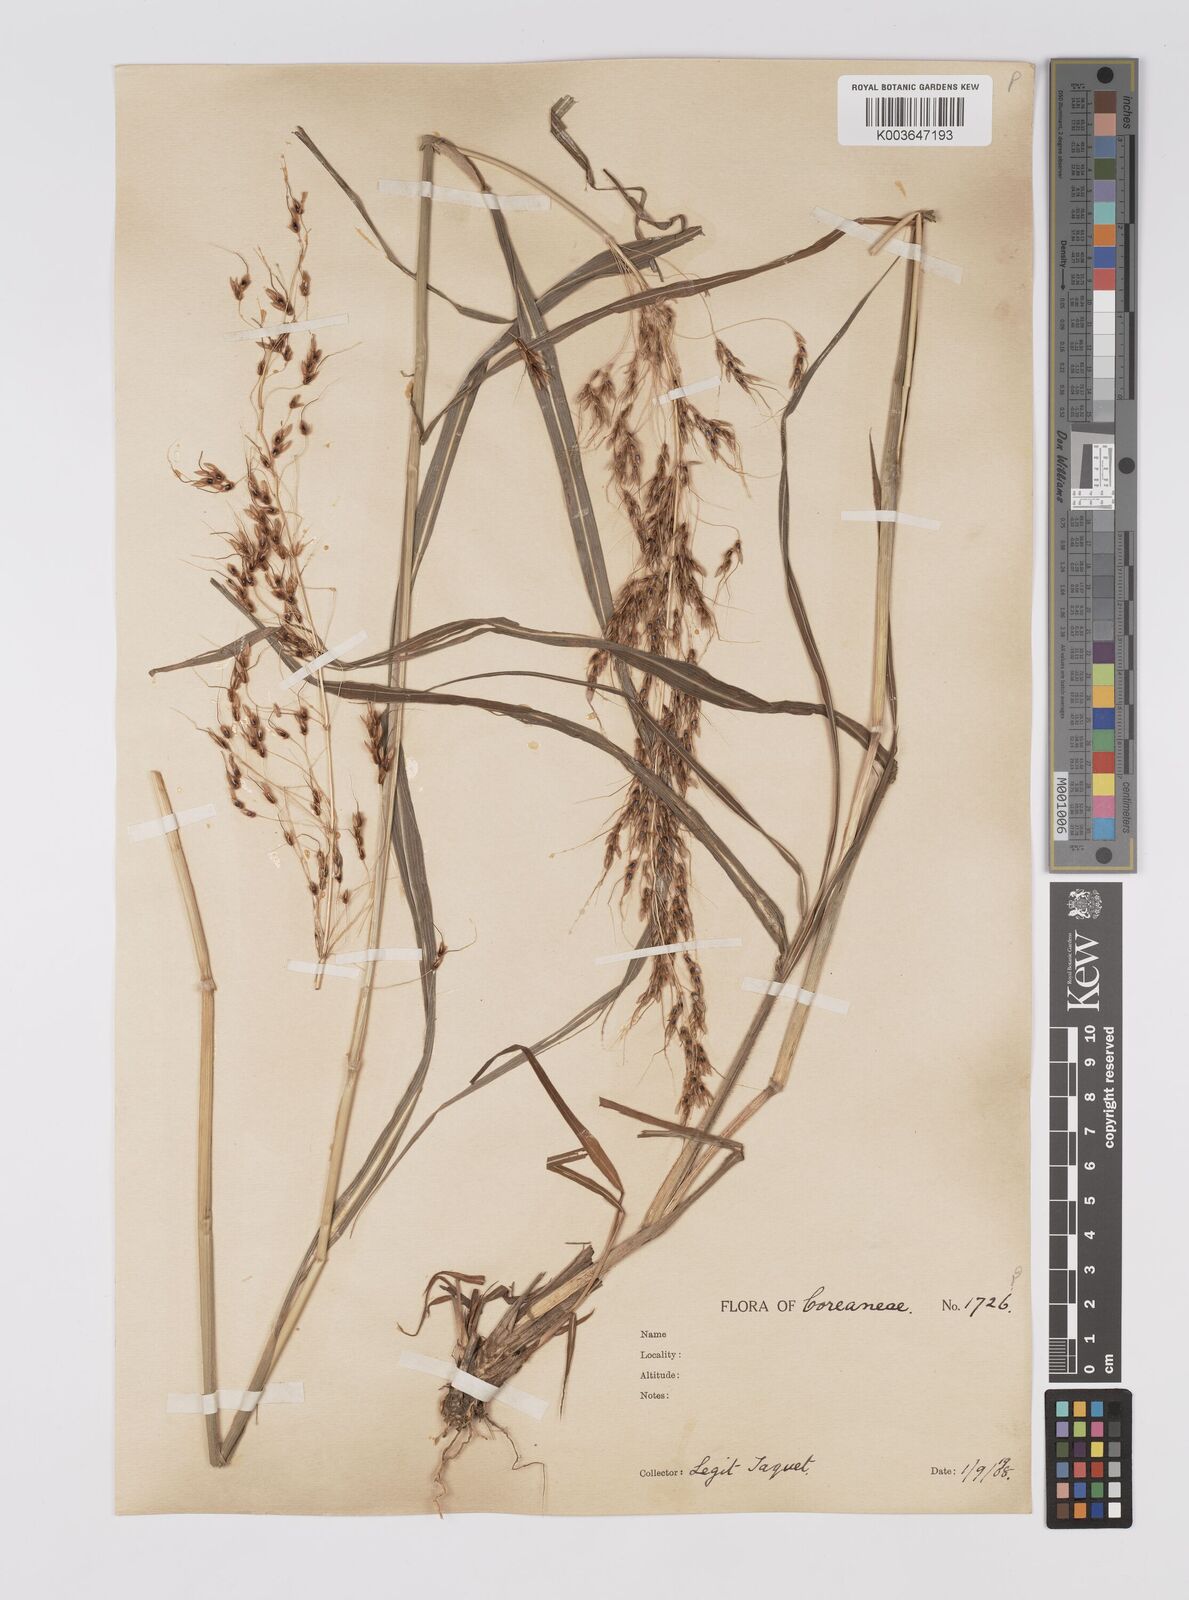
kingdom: Plantae
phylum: Tracheophyta
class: Liliopsida
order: Poales
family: Poaceae
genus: Sorghum
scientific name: Sorghum nitidum
